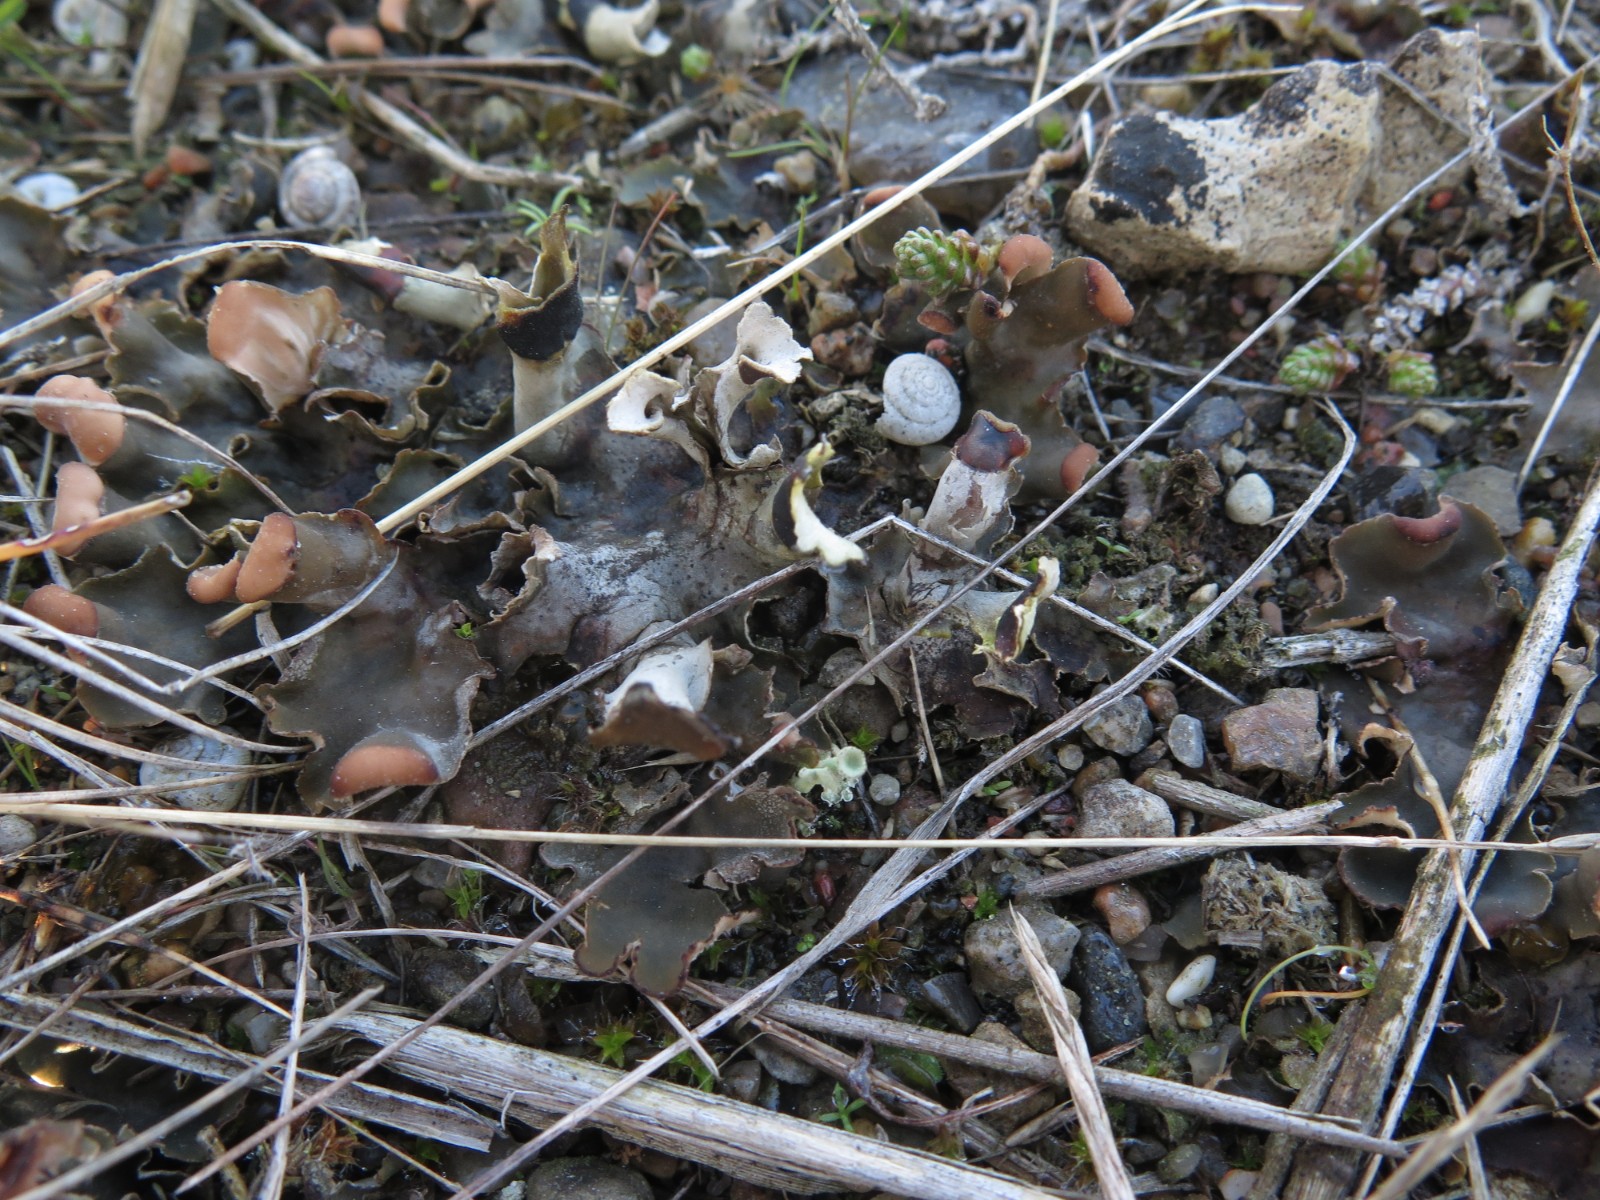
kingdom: Fungi
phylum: Ascomycota
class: Lecanoromycetes
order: Peltigerales
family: Peltigeraceae
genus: Peltigera
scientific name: Peltigera didactyla
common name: liden skjoldlav
